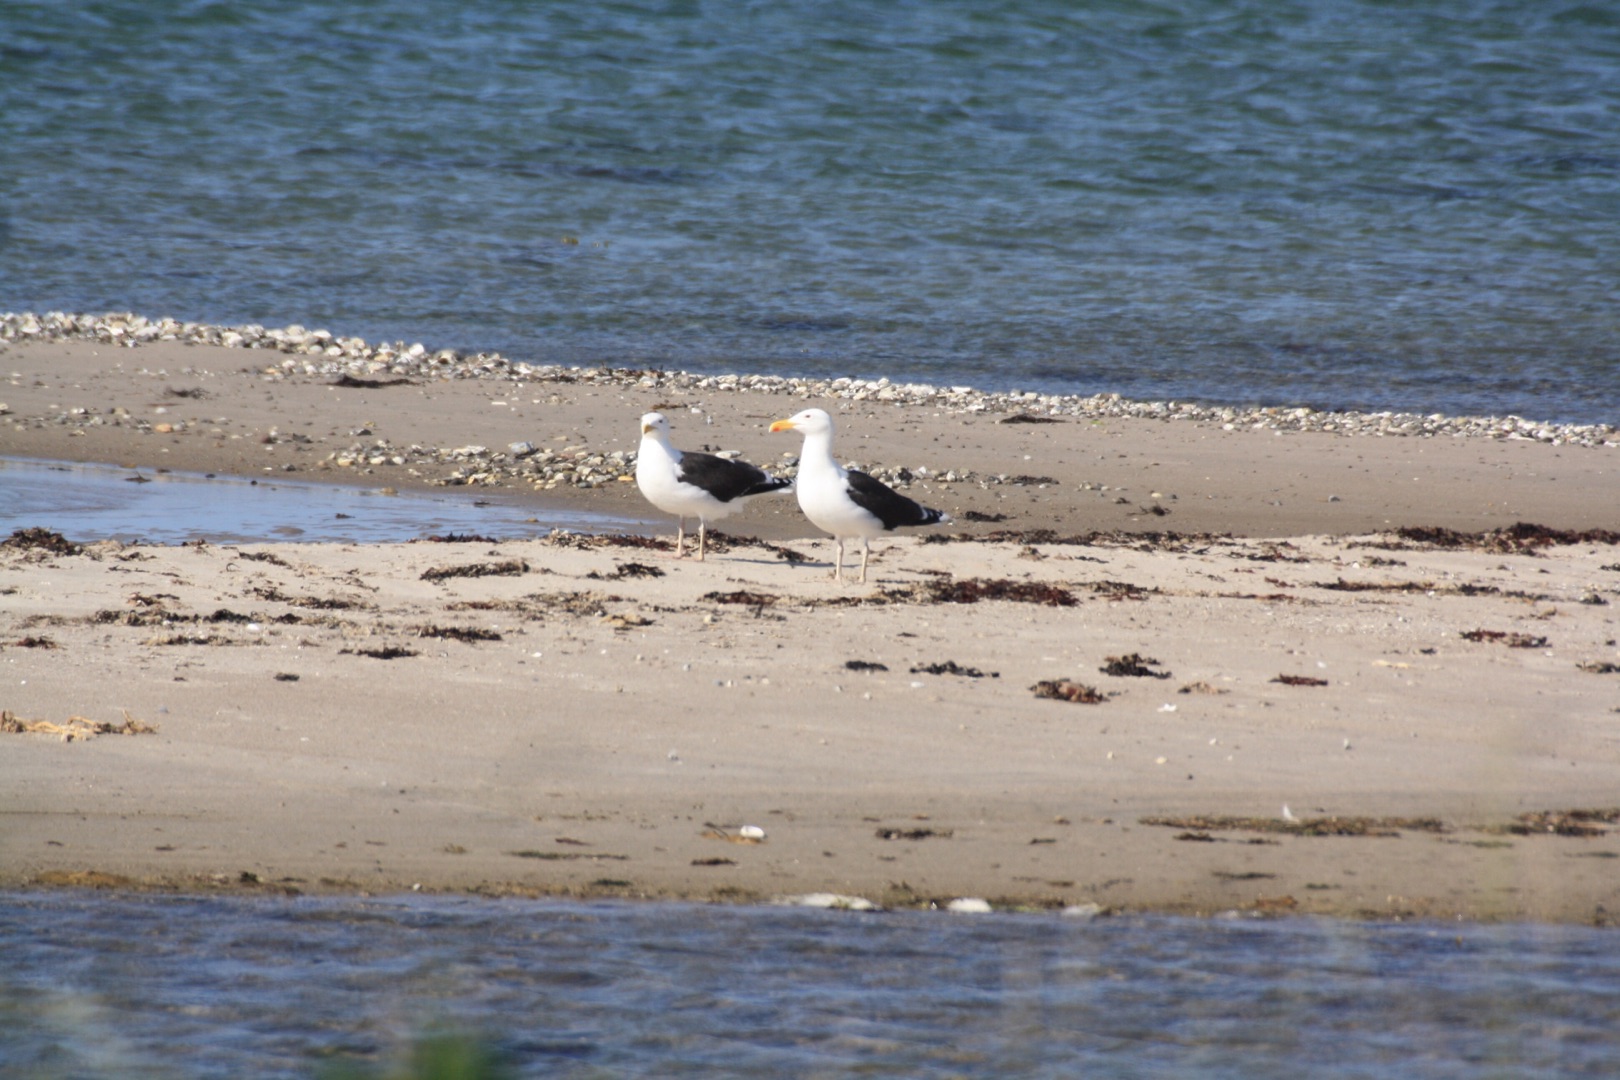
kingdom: Animalia
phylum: Chordata
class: Aves
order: Charadriiformes
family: Laridae
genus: Larus
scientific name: Larus marinus
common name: Svartbag
